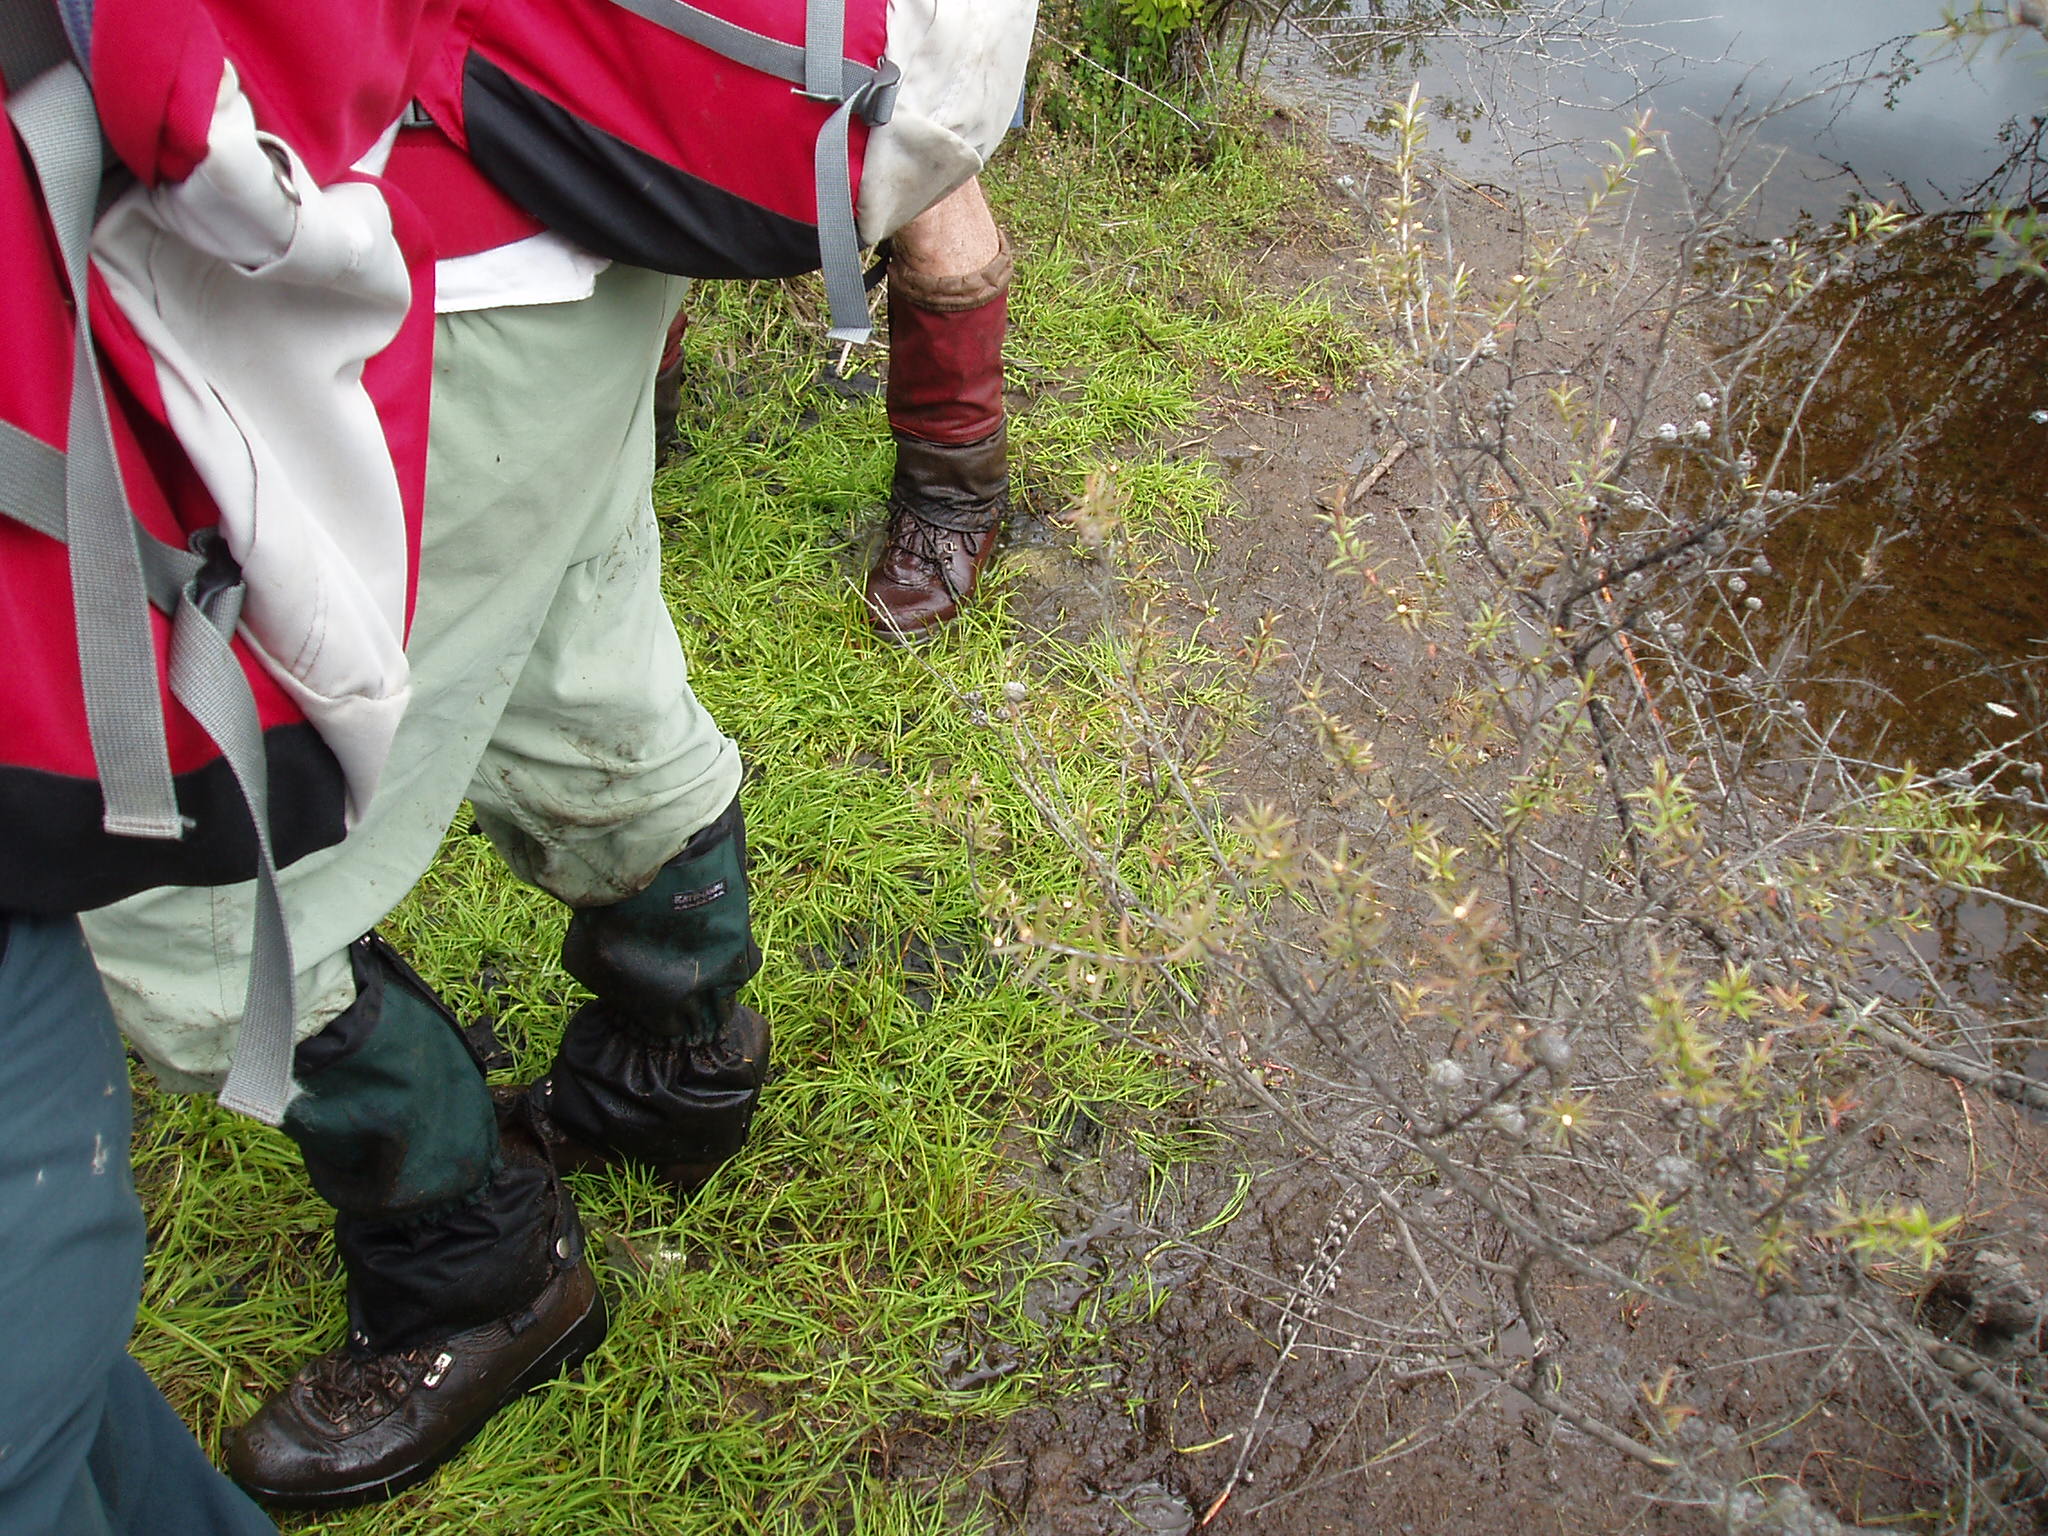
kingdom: Plantae
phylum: Tracheophyta
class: Liliopsida
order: Poales
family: Cyperaceae
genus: Carex
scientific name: Carex gaudichaudiana
